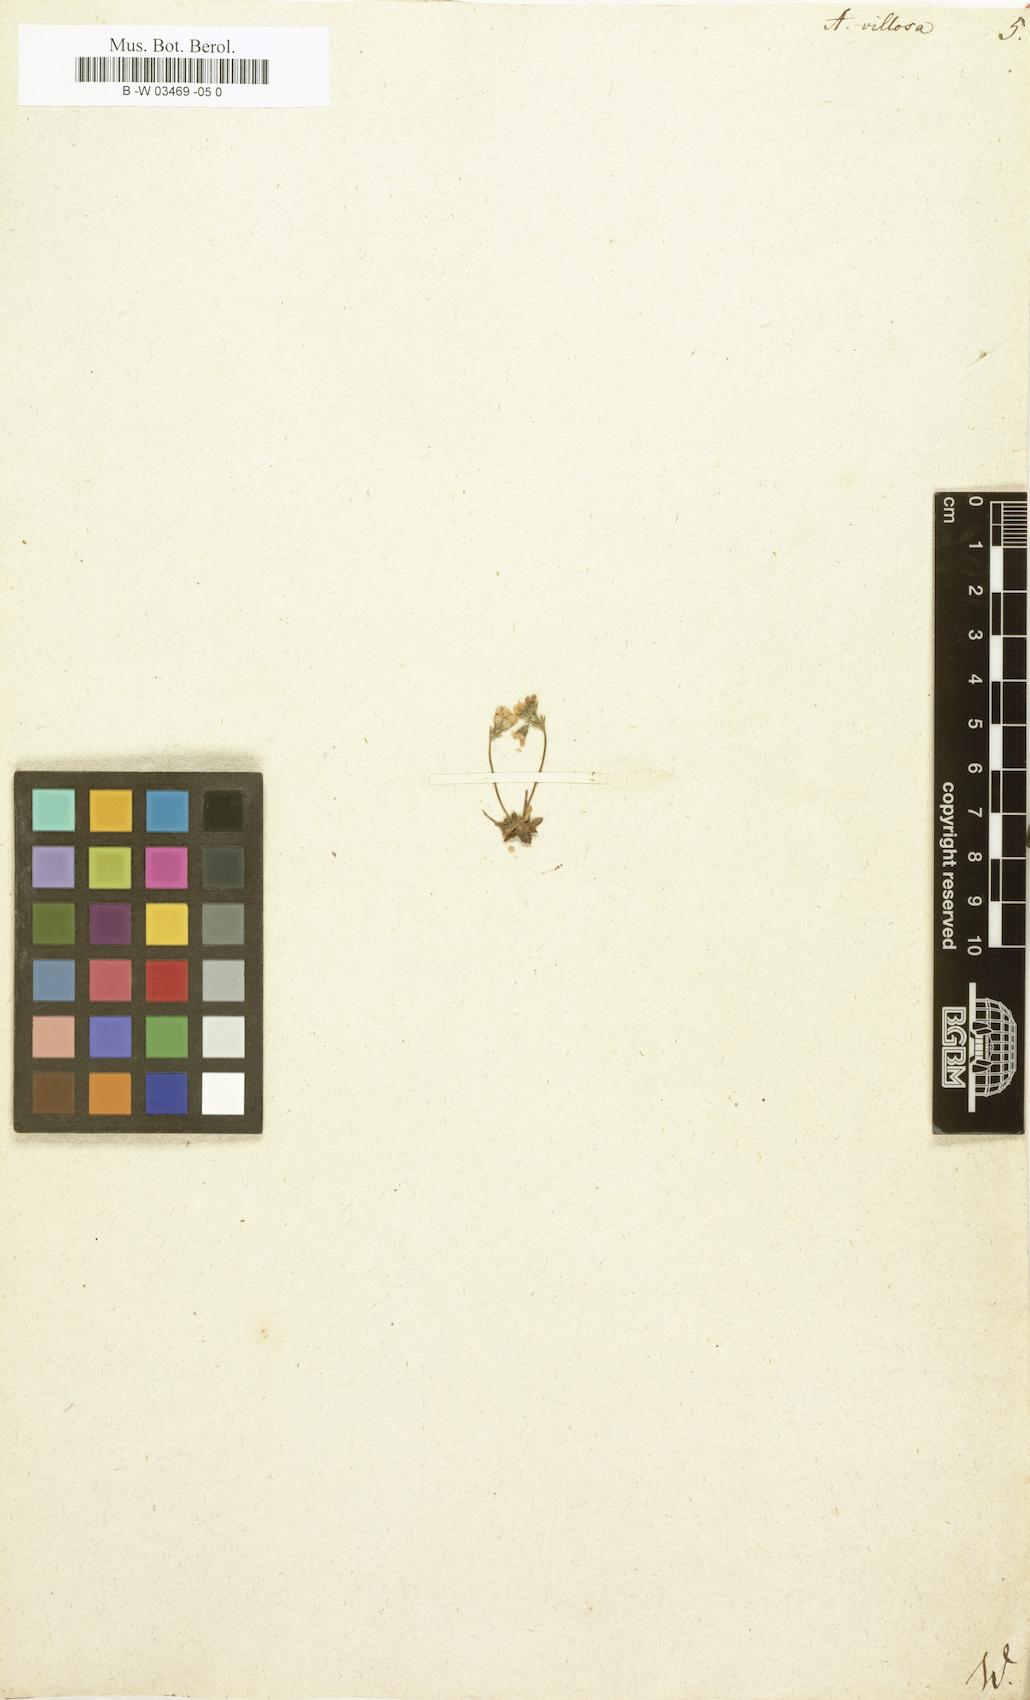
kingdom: Plantae
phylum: Tracheophyta
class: Magnoliopsida
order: Ericales
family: Primulaceae
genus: Androsace
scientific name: Androsace villosa
